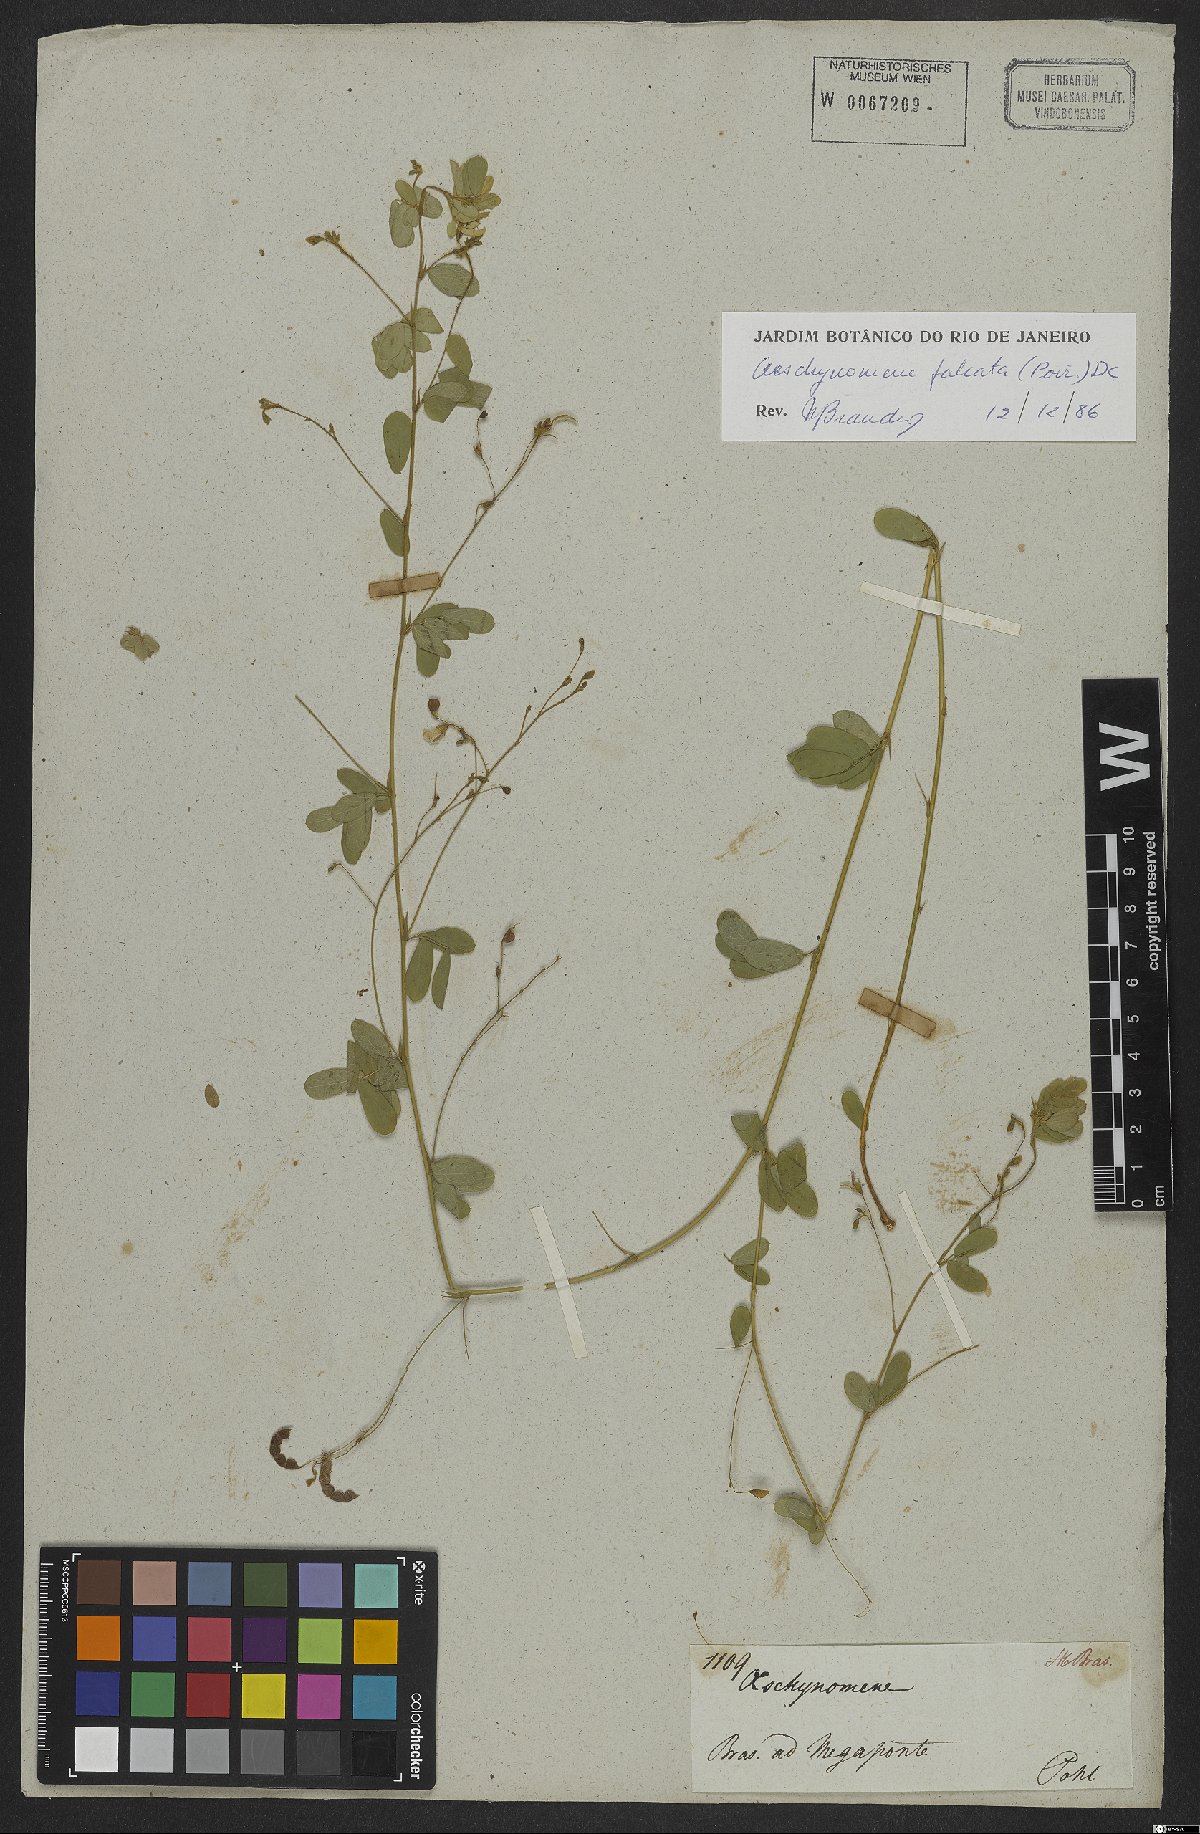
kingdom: Plantae
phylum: Tracheophyta
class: Magnoliopsida
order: Fabales
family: Fabaceae
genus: Ctenodon
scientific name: Ctenodon falcatus
